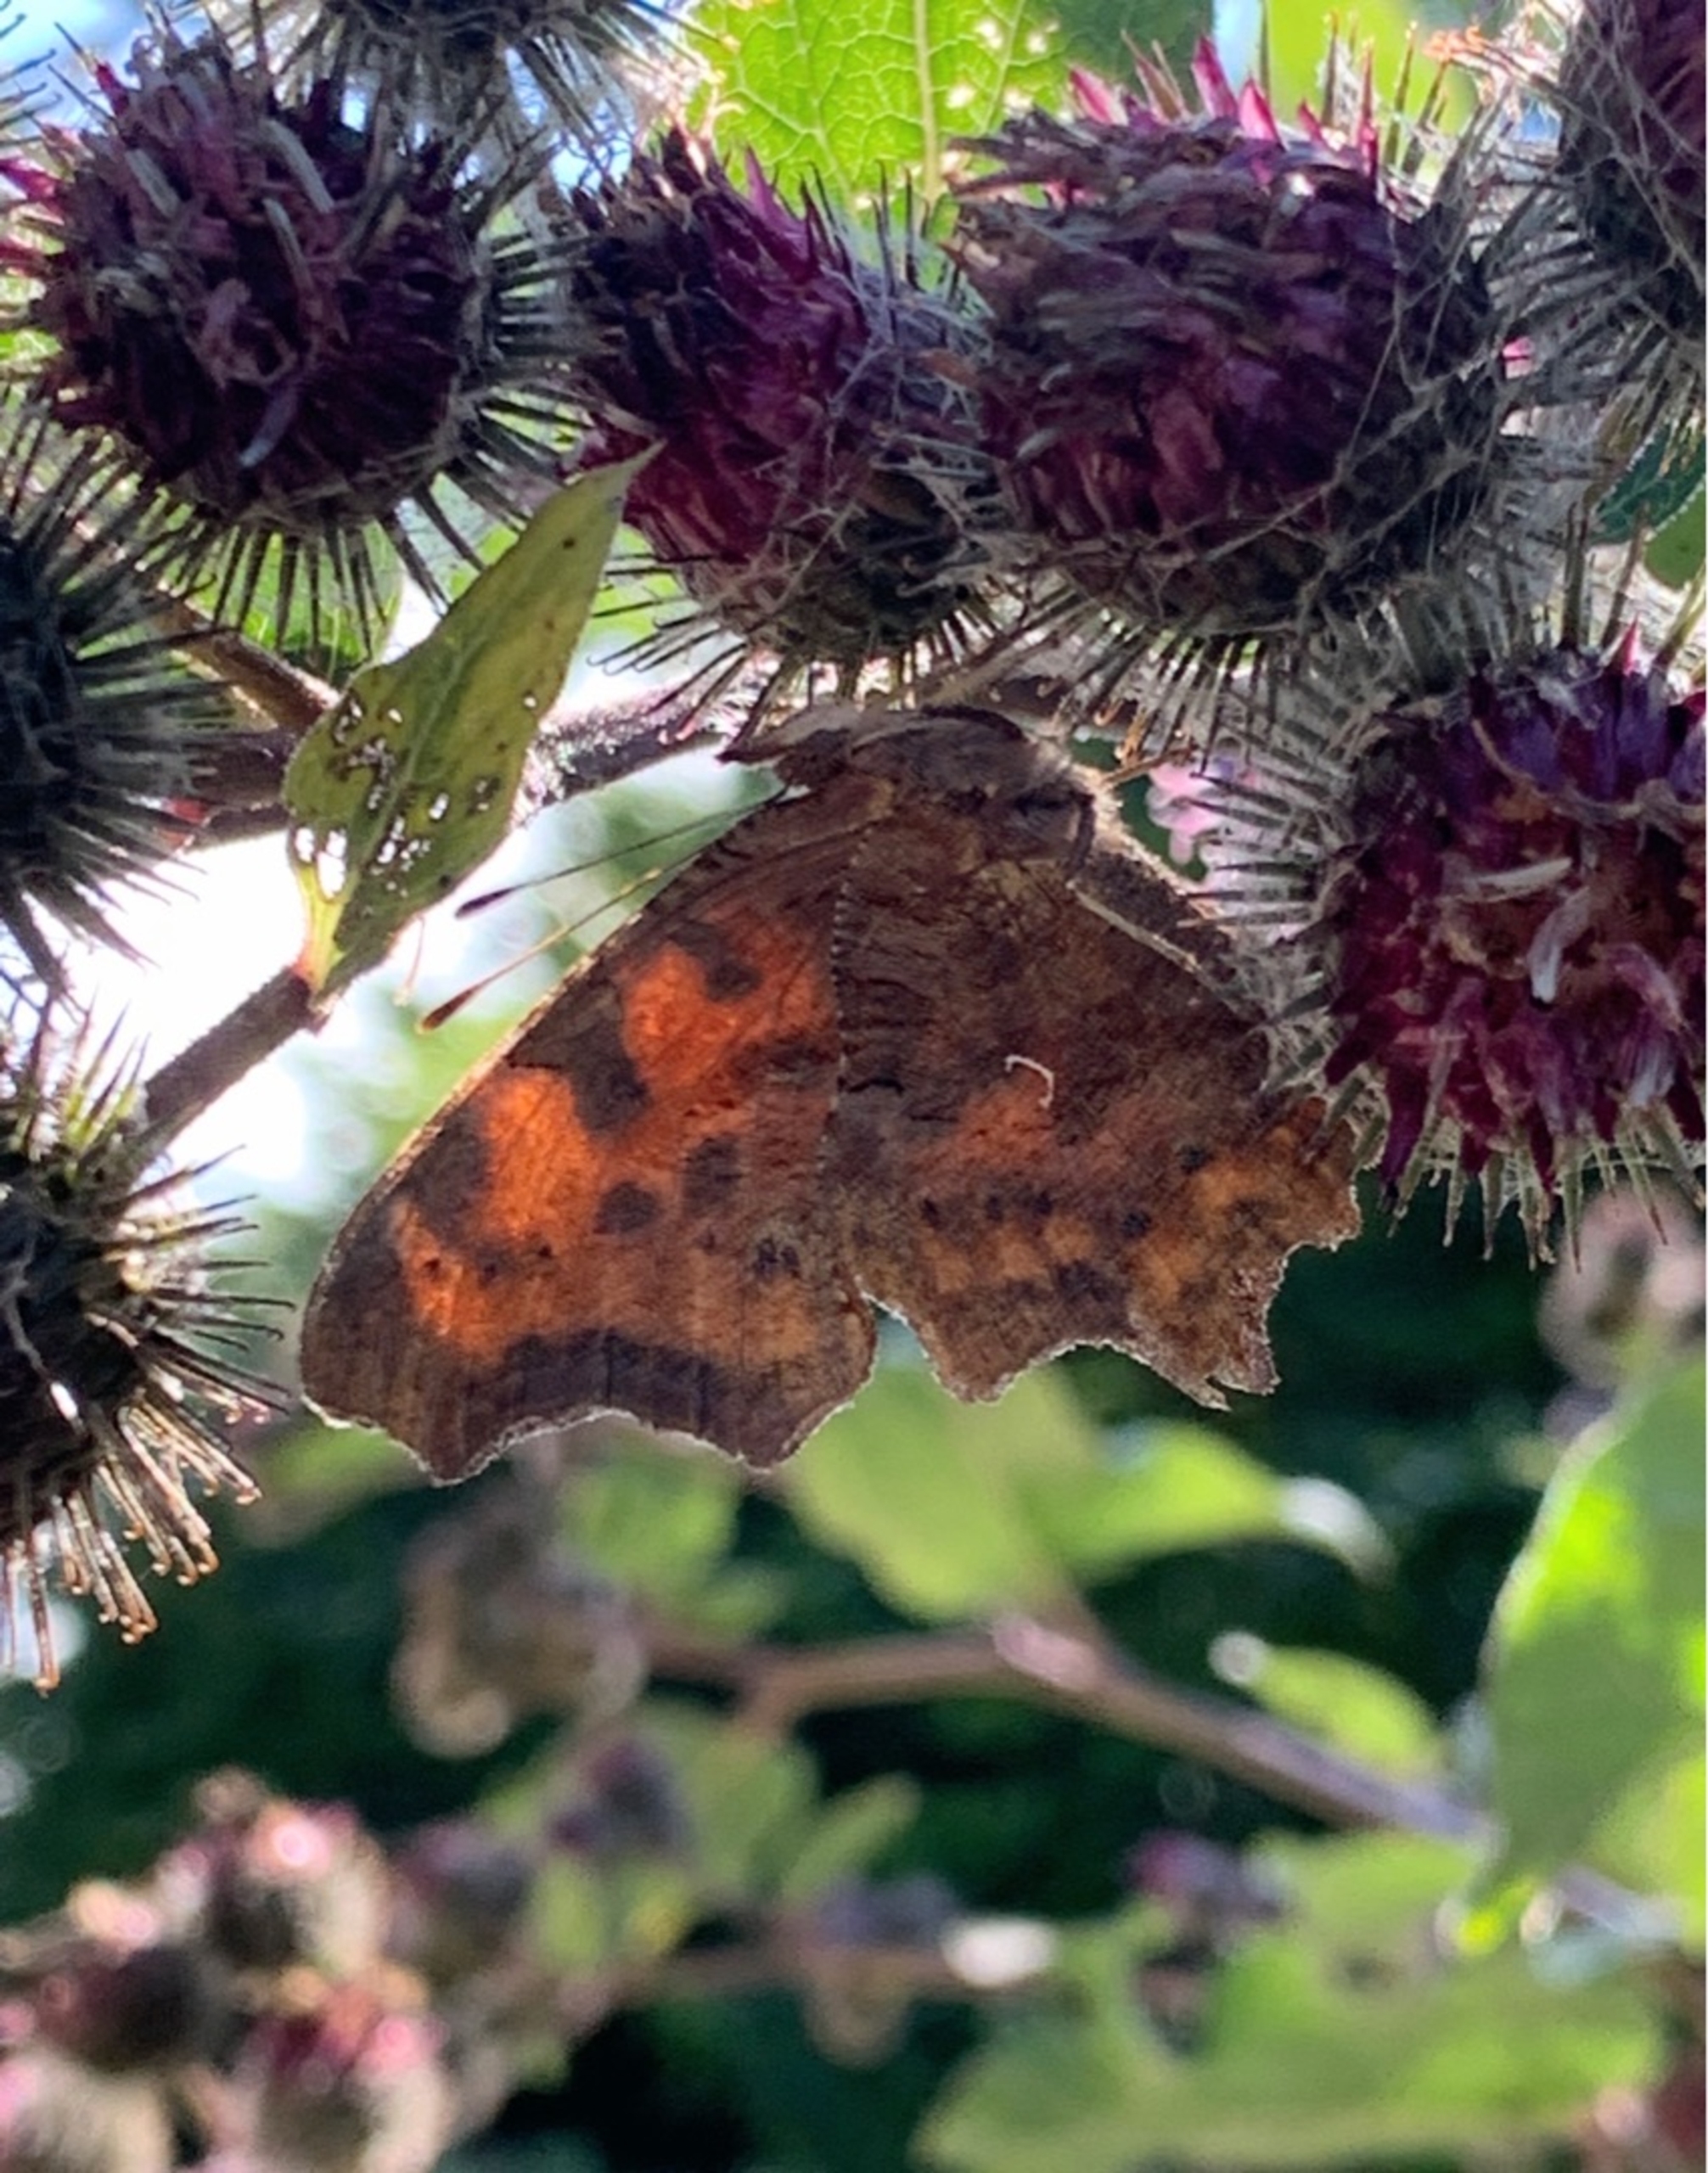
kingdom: Animalia
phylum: Arthropoda
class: Insecta
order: Lepidoptera
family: Nymphalidae
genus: Polygonia
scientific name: Polygonia c-album
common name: Det hvide C
